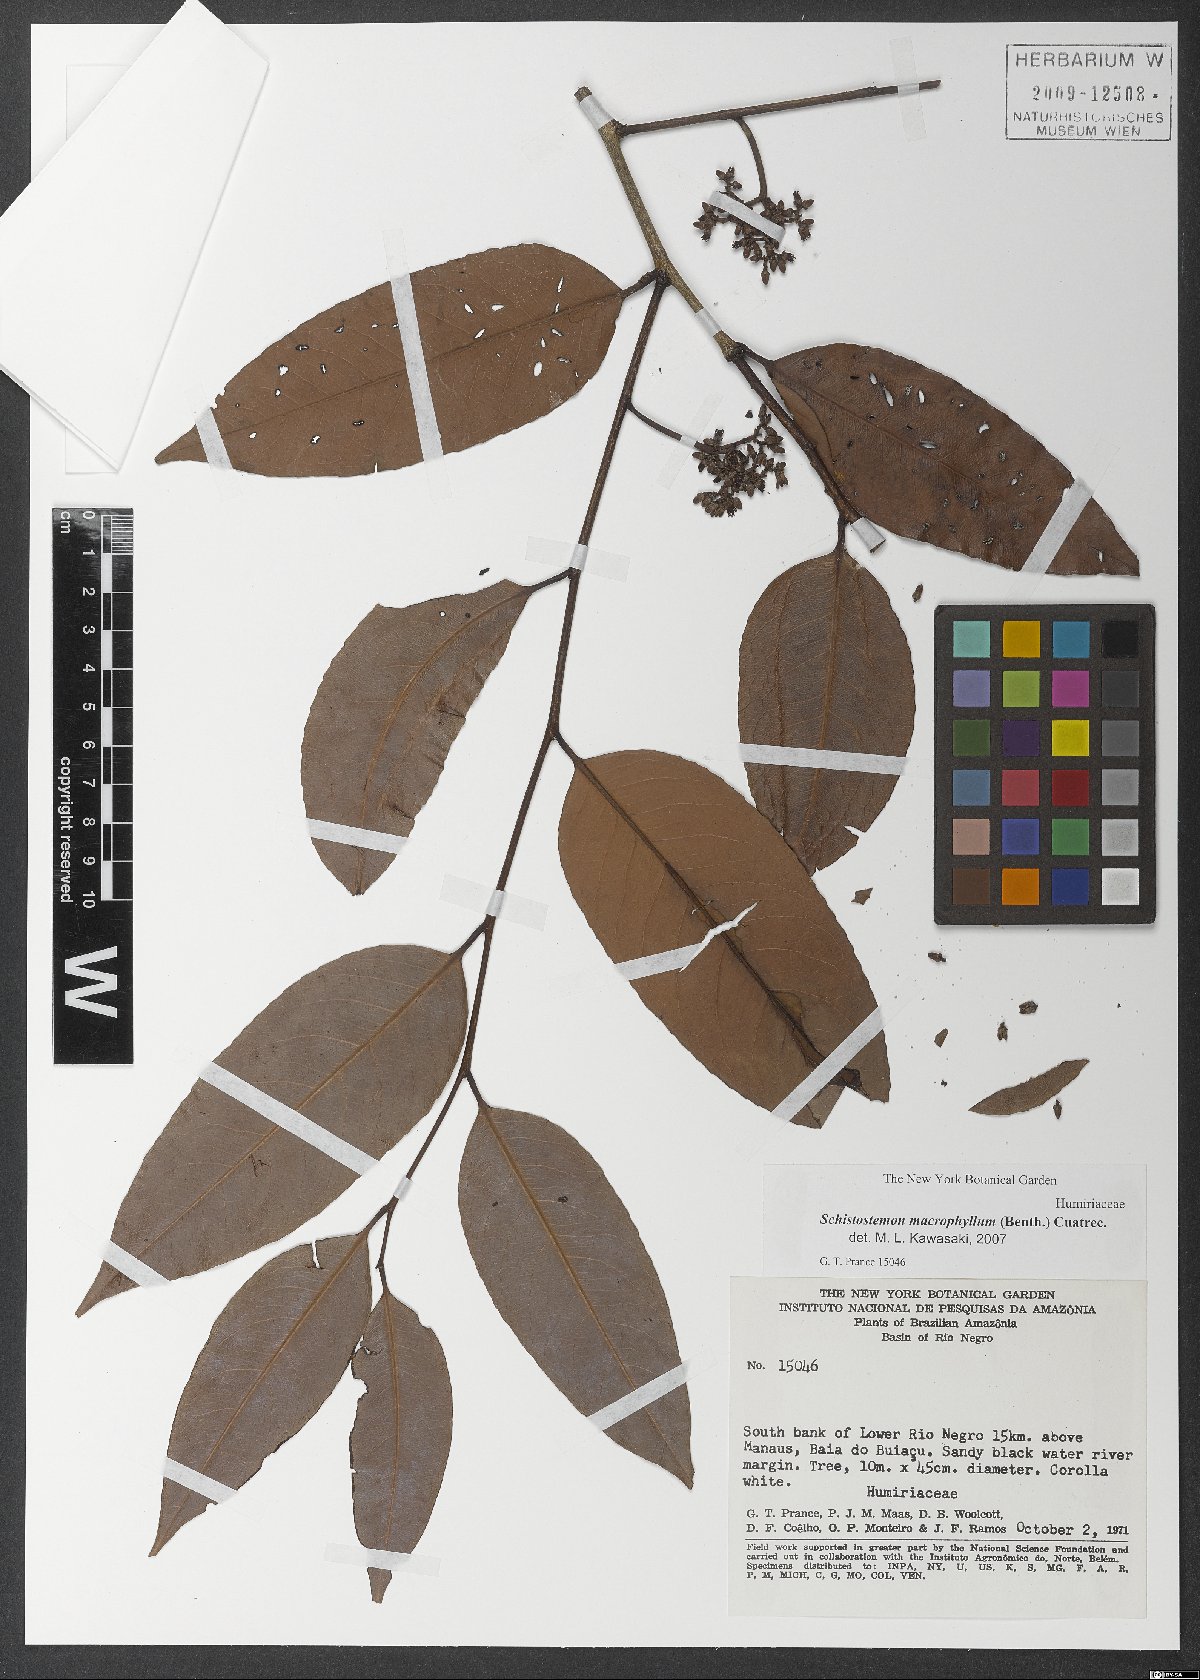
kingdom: Plantae
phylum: Tracheophyta
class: Magnoliopsida
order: Malpighiales
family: Humiriaceae
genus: Schistostemon
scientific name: Schistostemon macrophyllum
